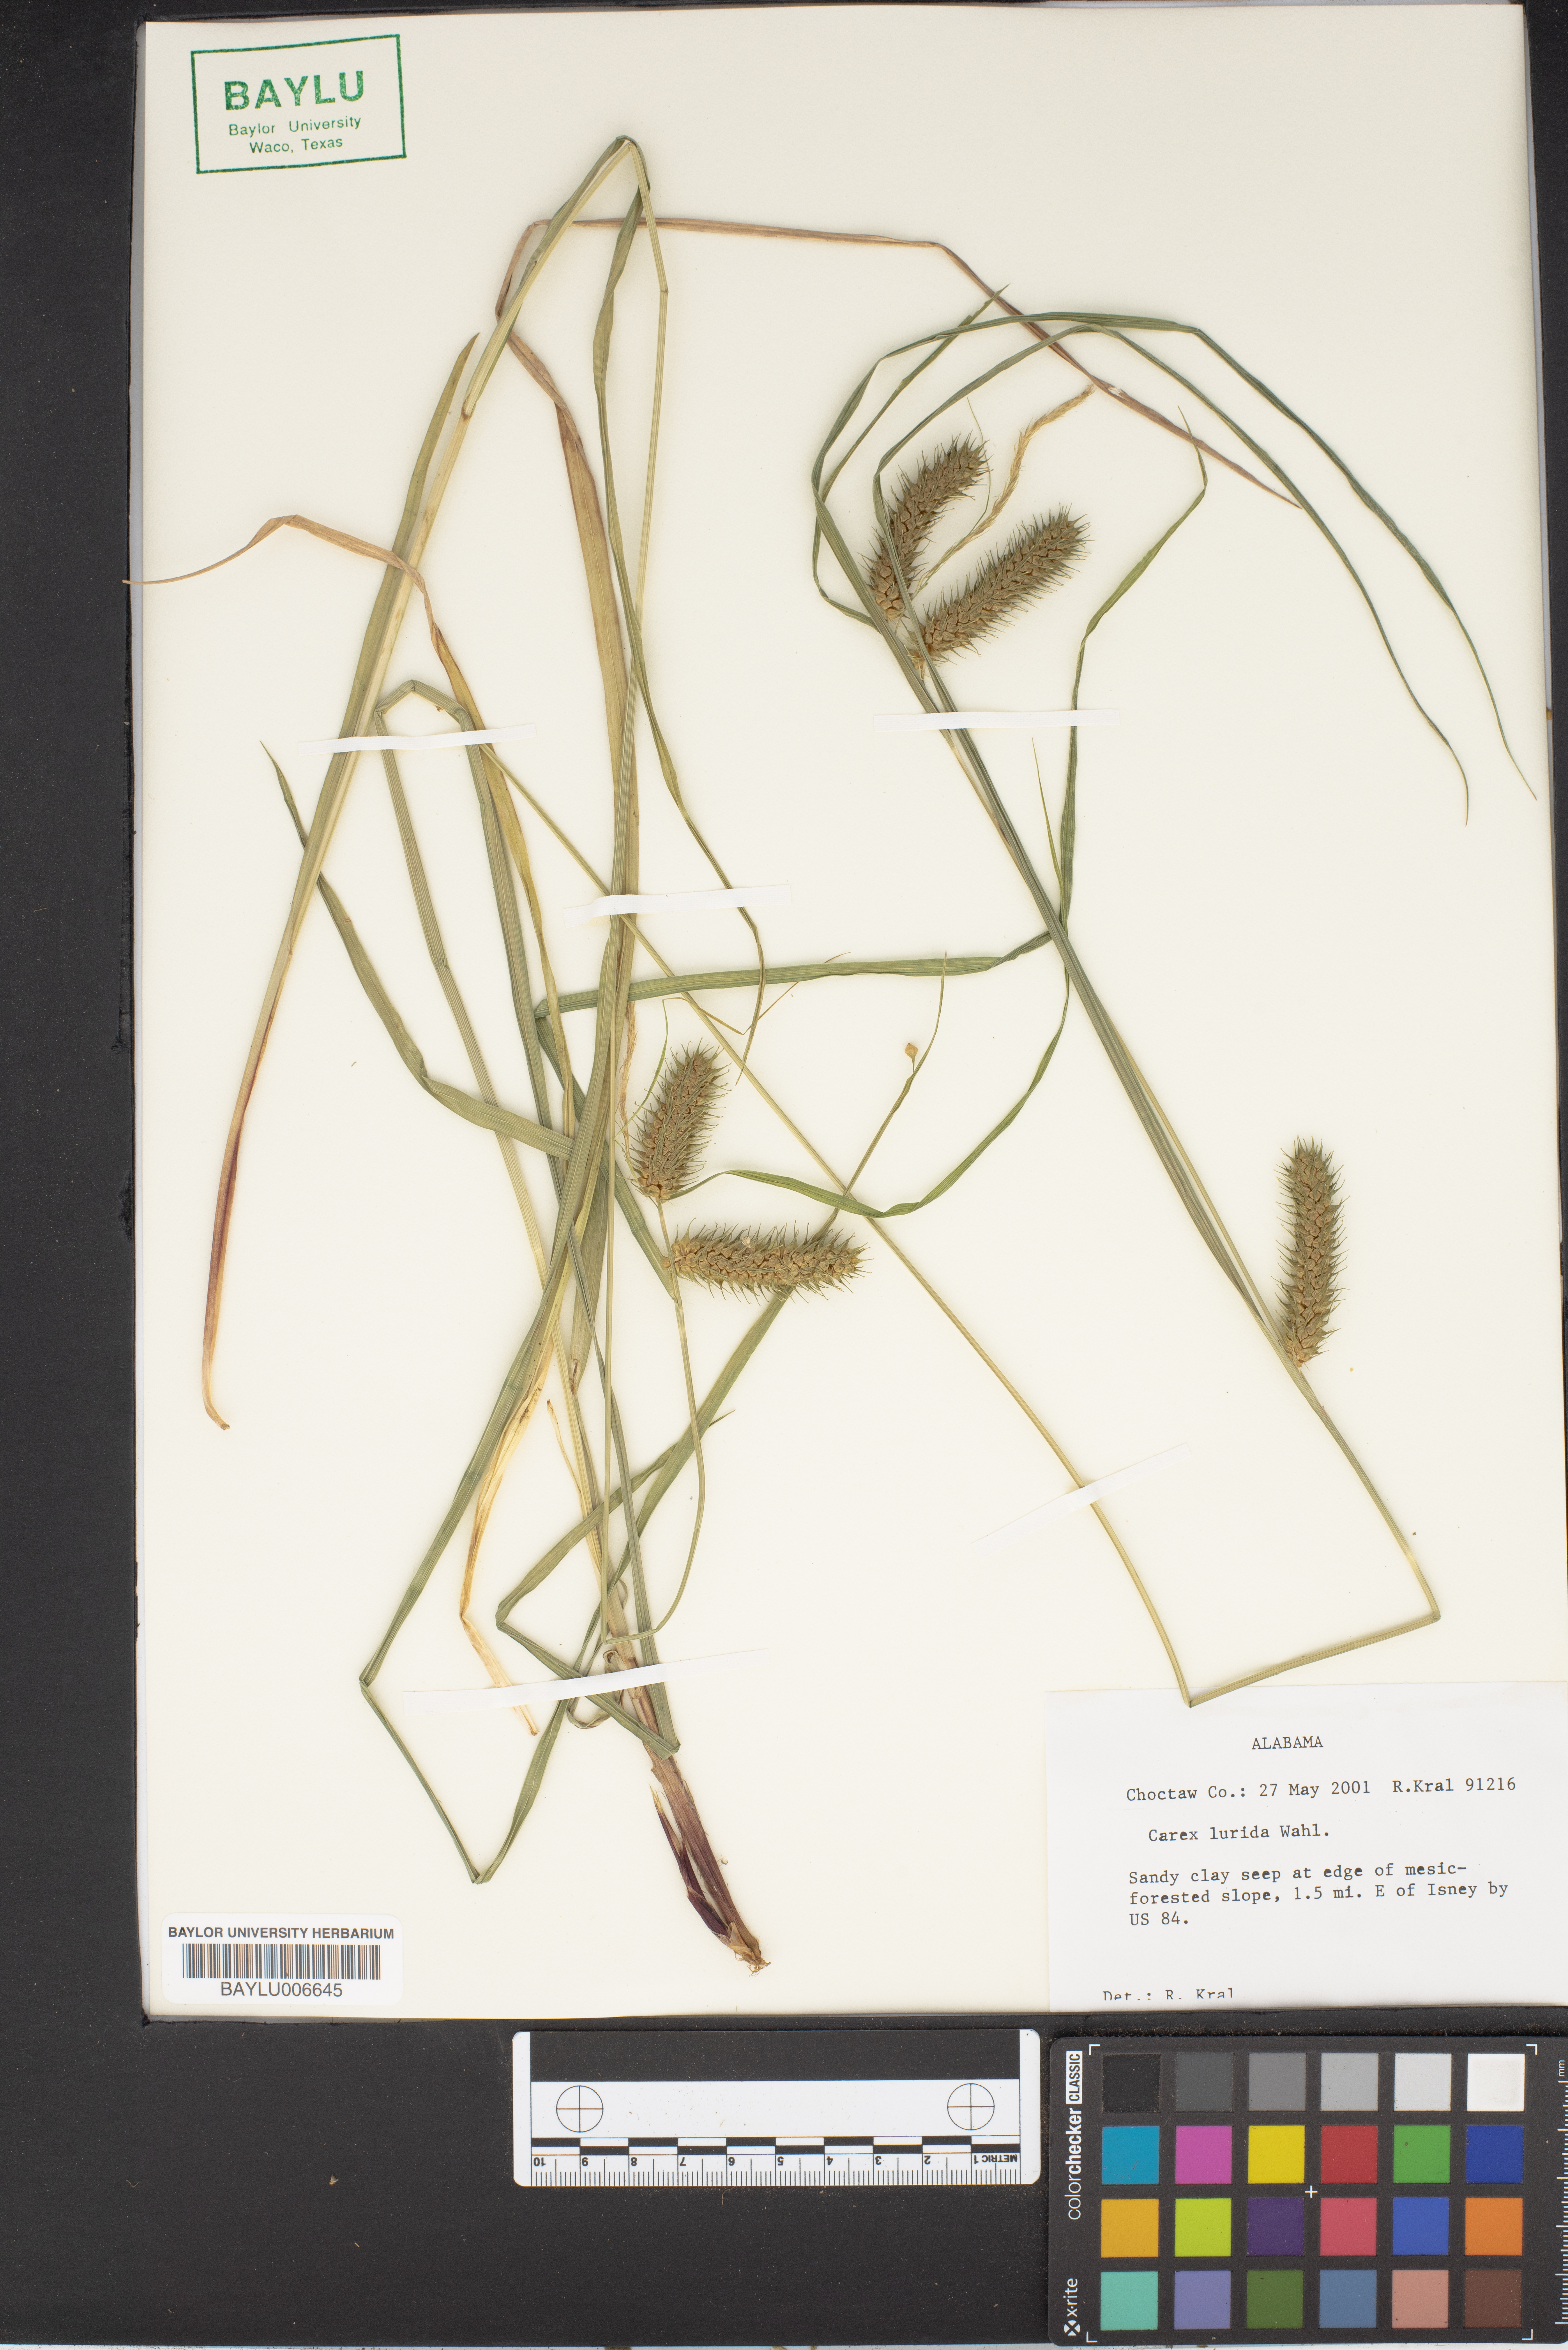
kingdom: Plantae
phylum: Tracheophyta
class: Liliopsida
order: Poales
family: Cyperaceae
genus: Carex
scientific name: Carex lurida
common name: Sallow sedge
